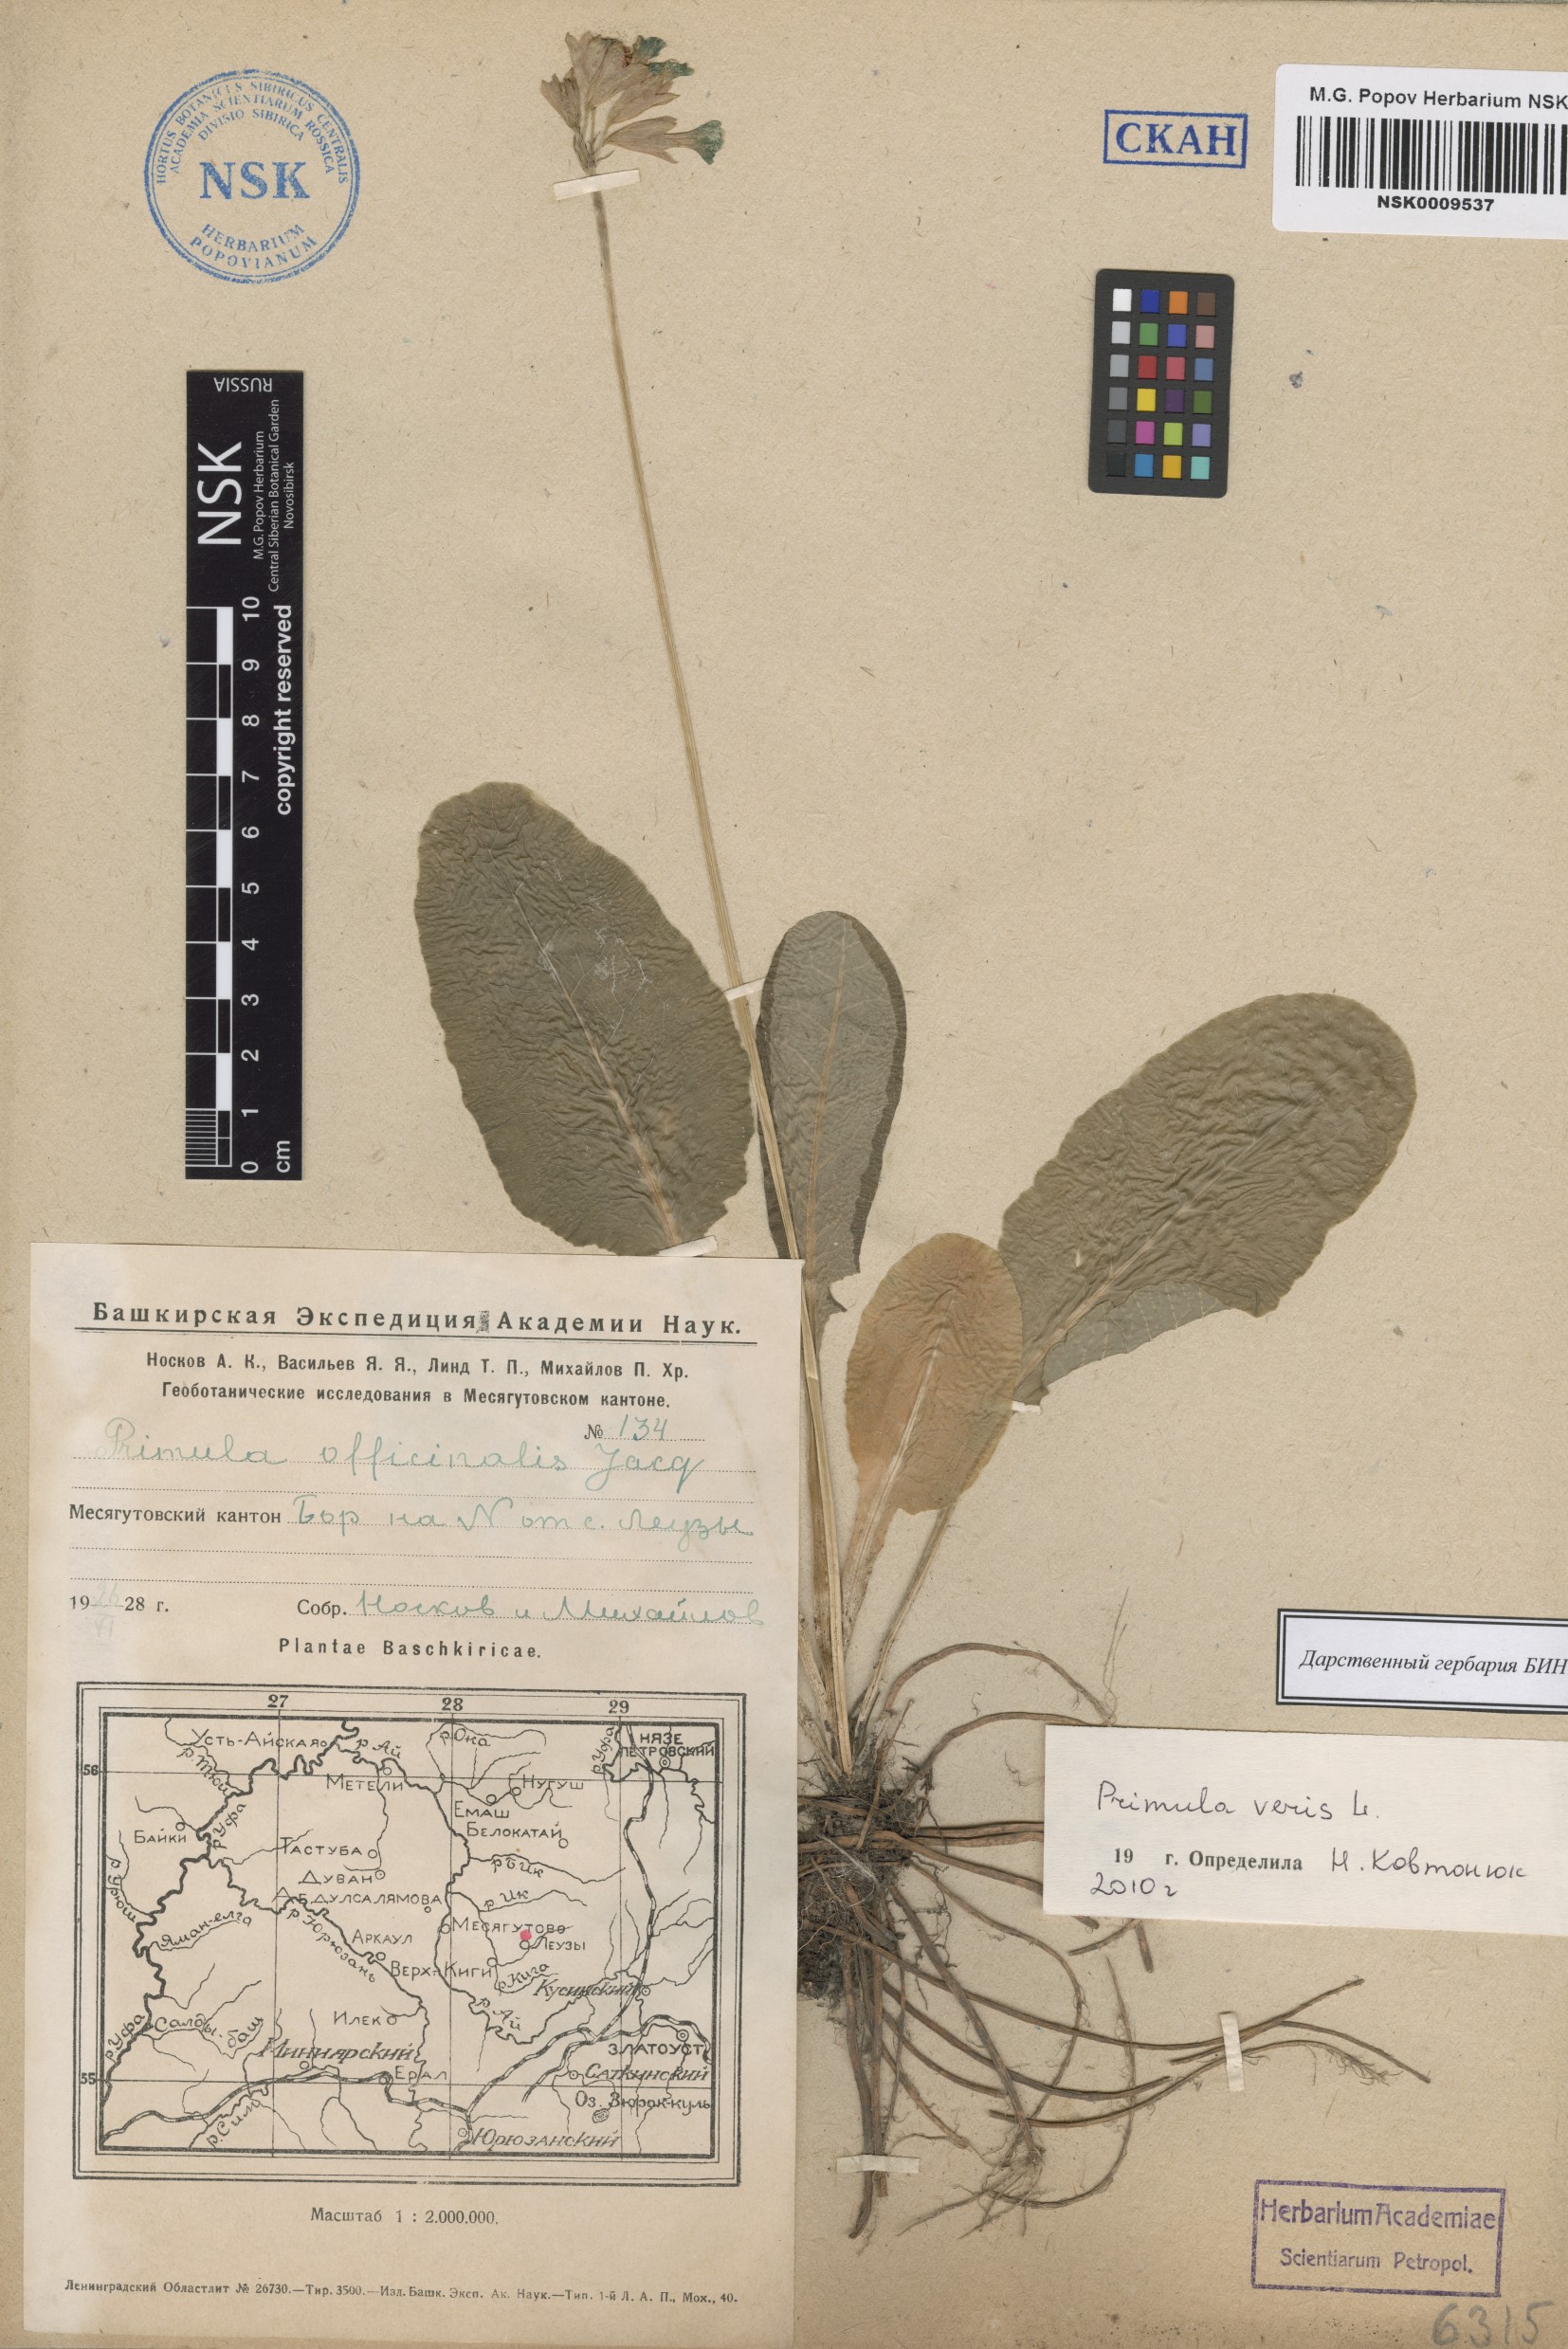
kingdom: Plantae
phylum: Tracheophyta
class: Magnoliopsida
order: Ericales
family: Primulaceae
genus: Primula
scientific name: Primula veris
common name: Cowslip
